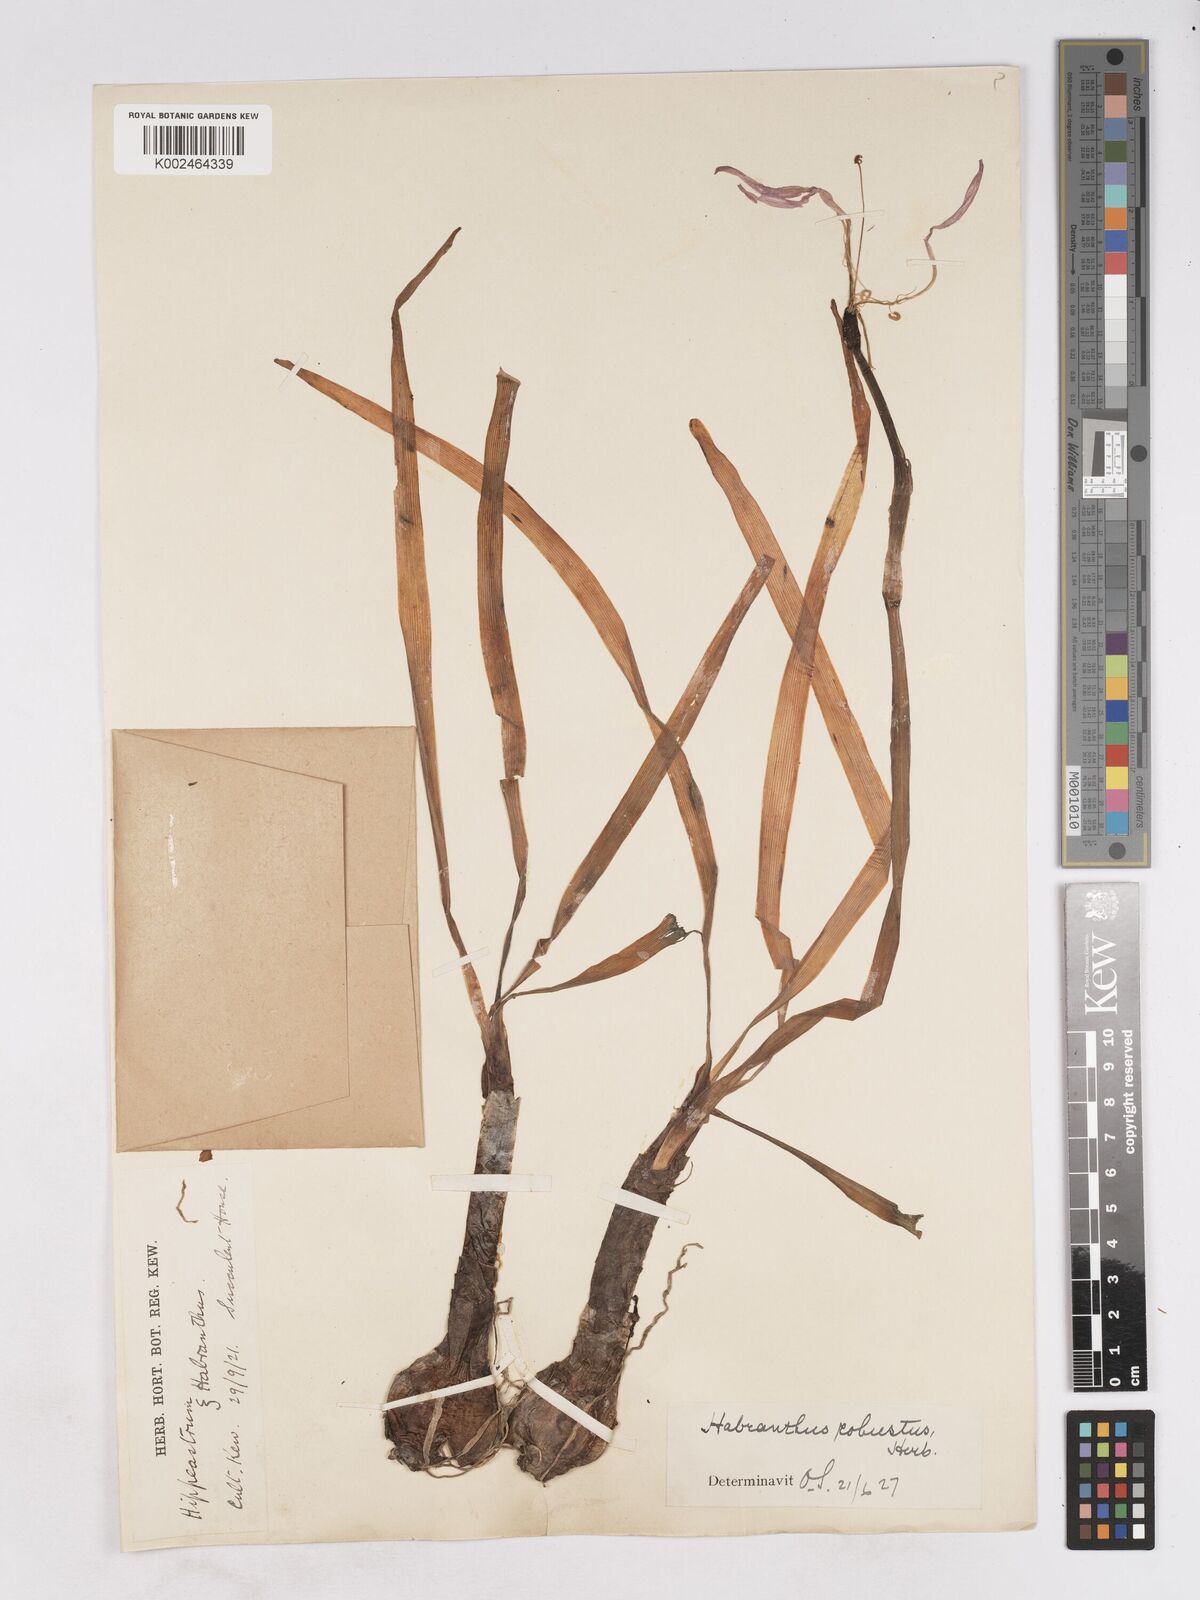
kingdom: Plantae
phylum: Tracheophyta
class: Liliopsida
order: Asparagales
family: Amaryllidaceae
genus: Zephyranthes
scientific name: Zephyranthes robusta
